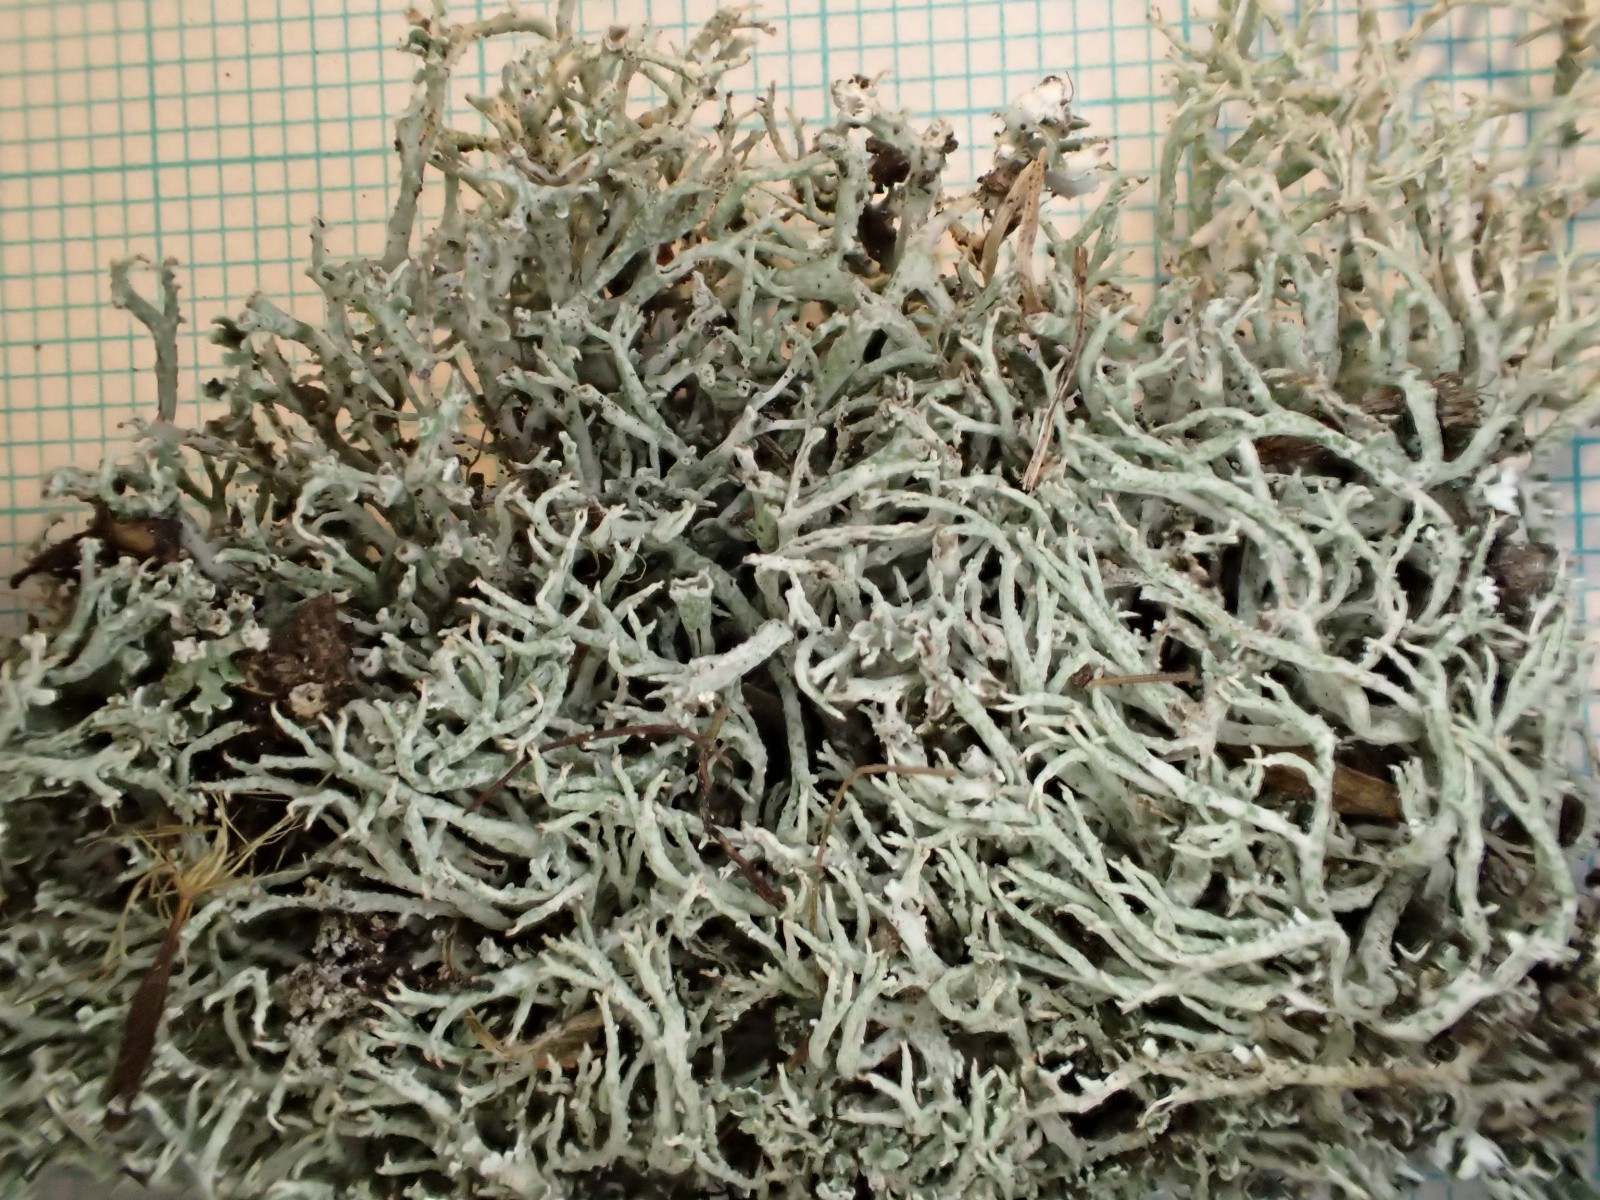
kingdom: Fungi
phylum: Ascomycota
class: Lecanoromycetes
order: Lecanorales
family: Cladoniaceae
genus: Cladonia
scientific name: Cladonia rangiformis
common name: spættet bægerlav
